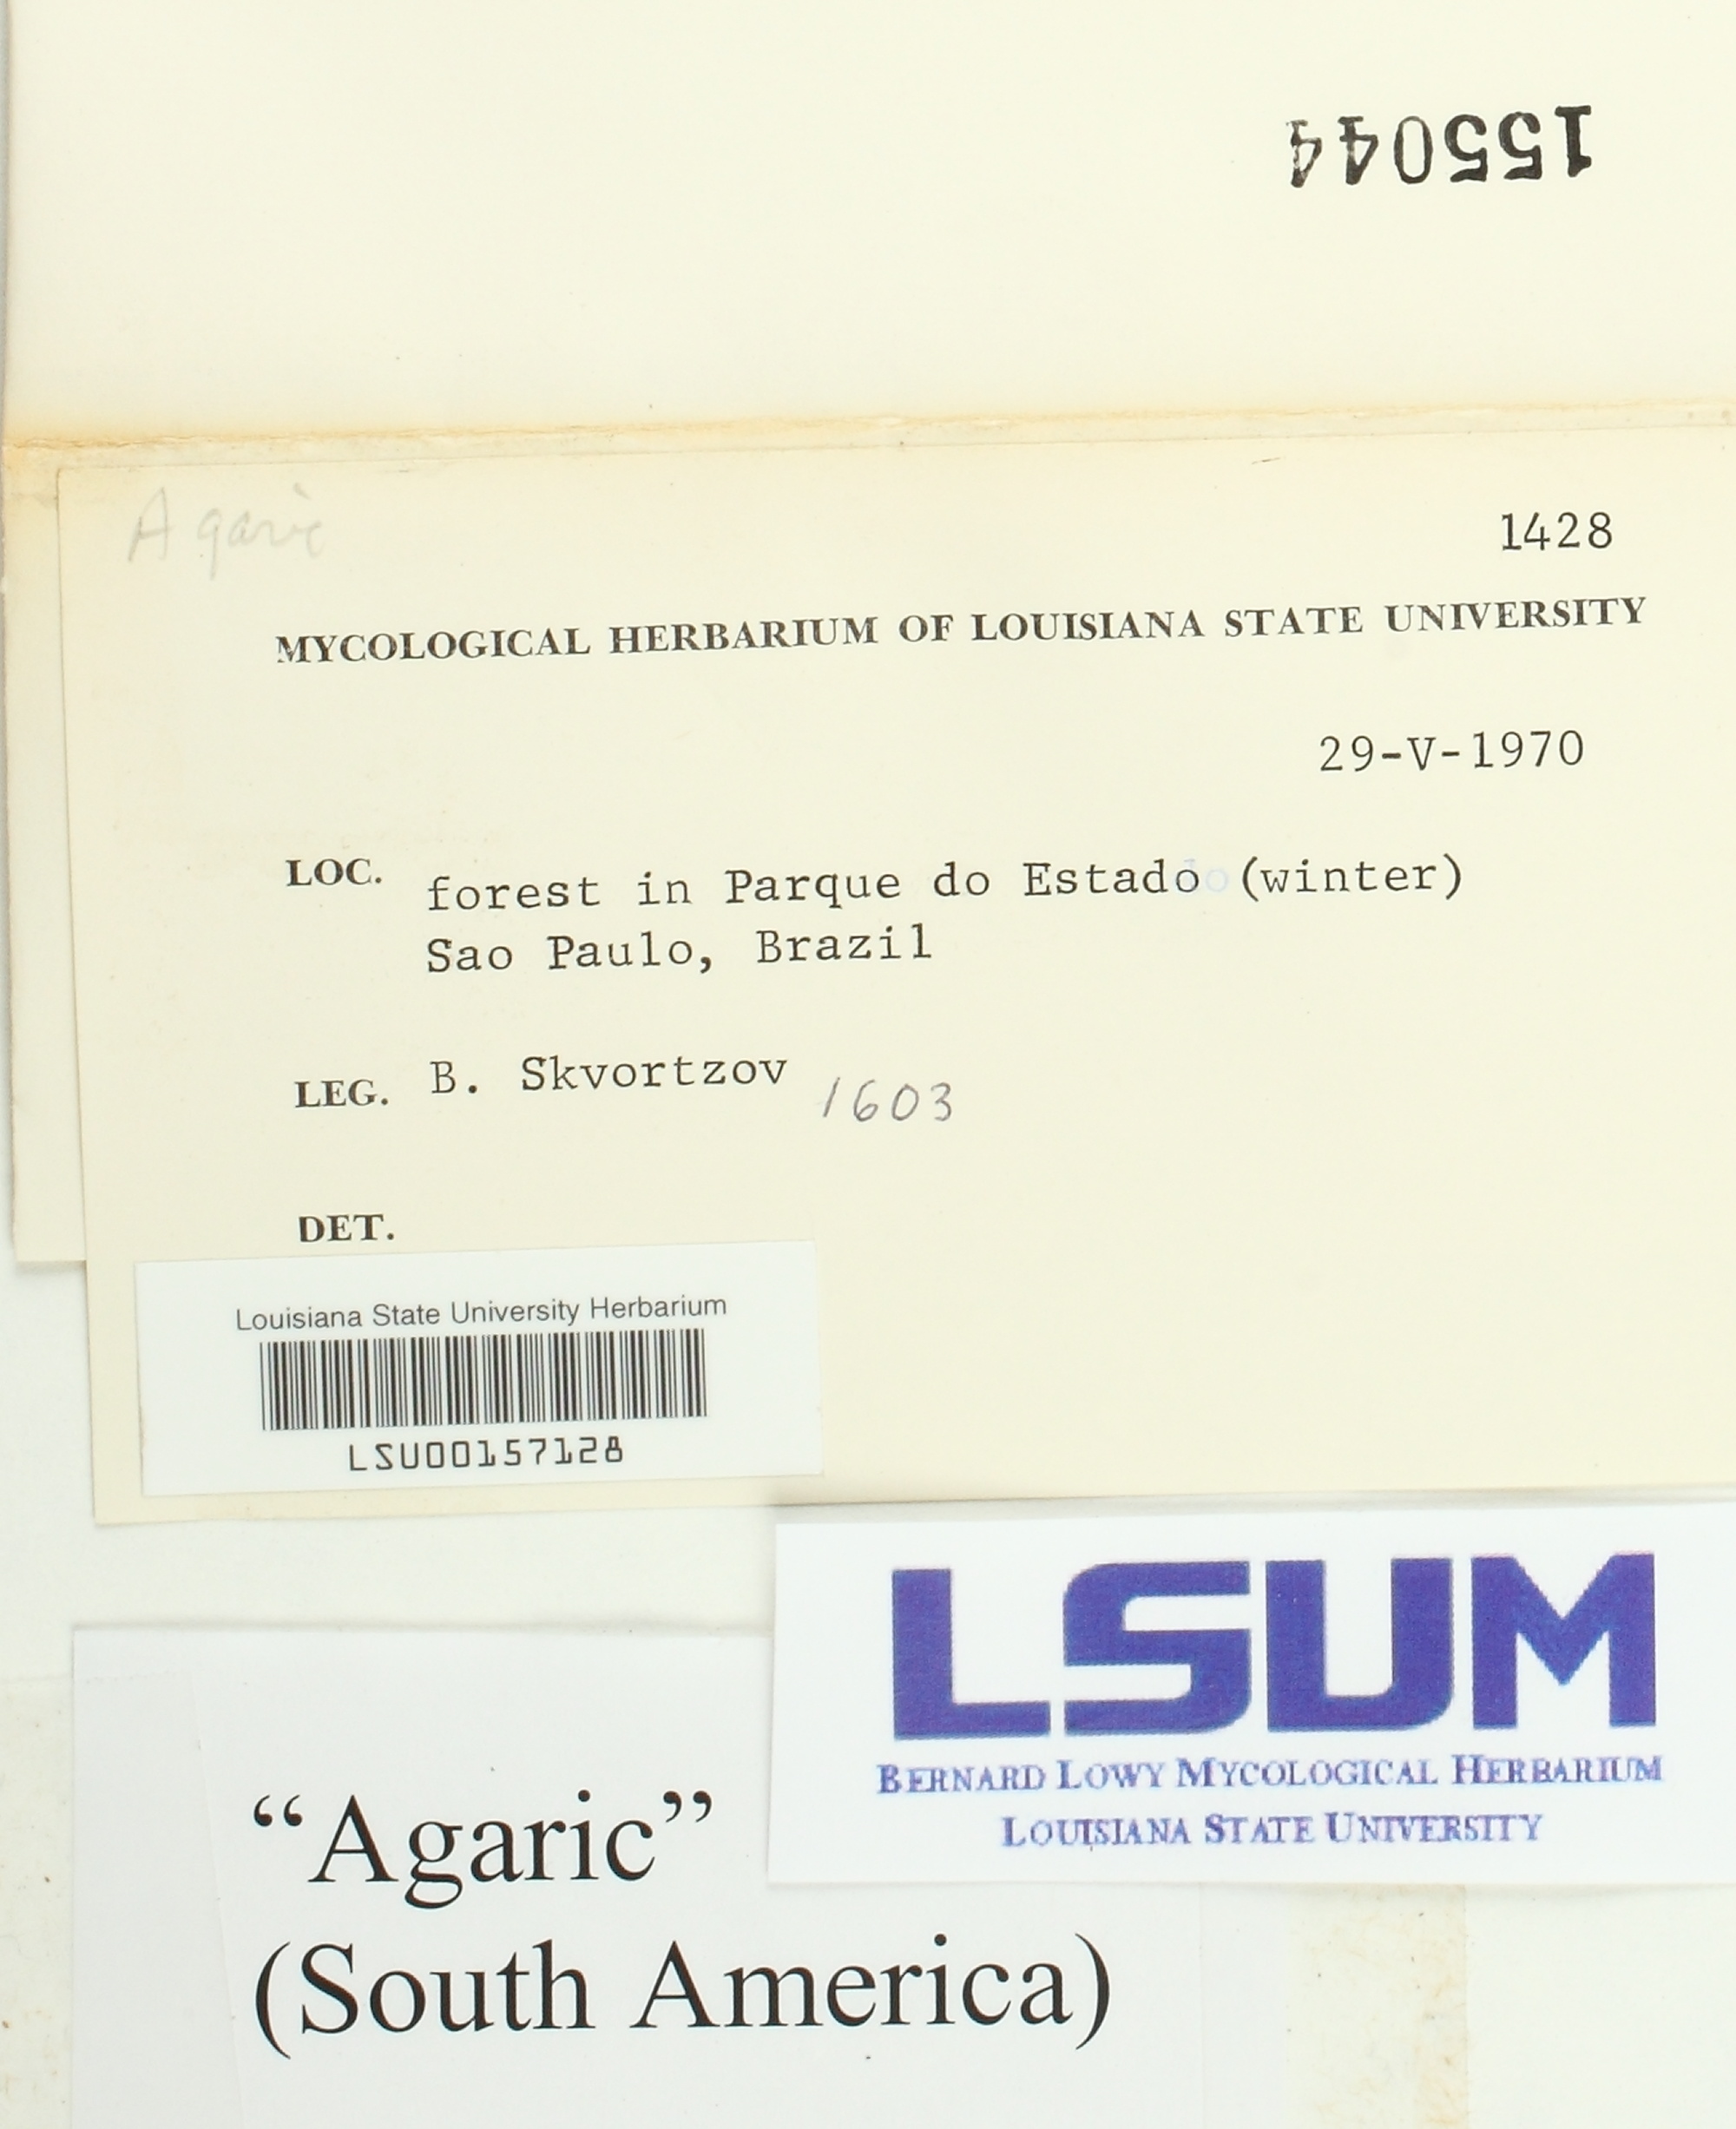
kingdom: Fungi
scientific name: Fungi
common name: Fungi
